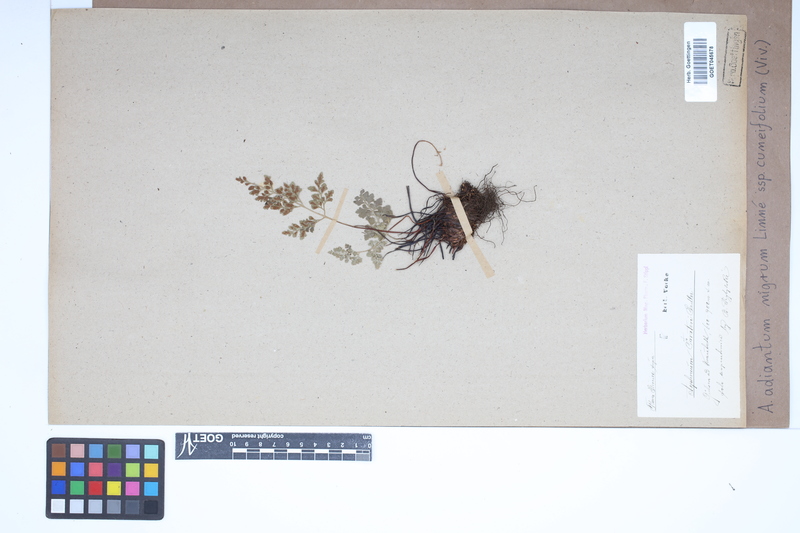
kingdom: Plantae
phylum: Tracheophyta
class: Polypodiopsida
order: Polypodiales
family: Aspleniaceae
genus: Asplenium
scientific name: Asplenium cuneifolium
